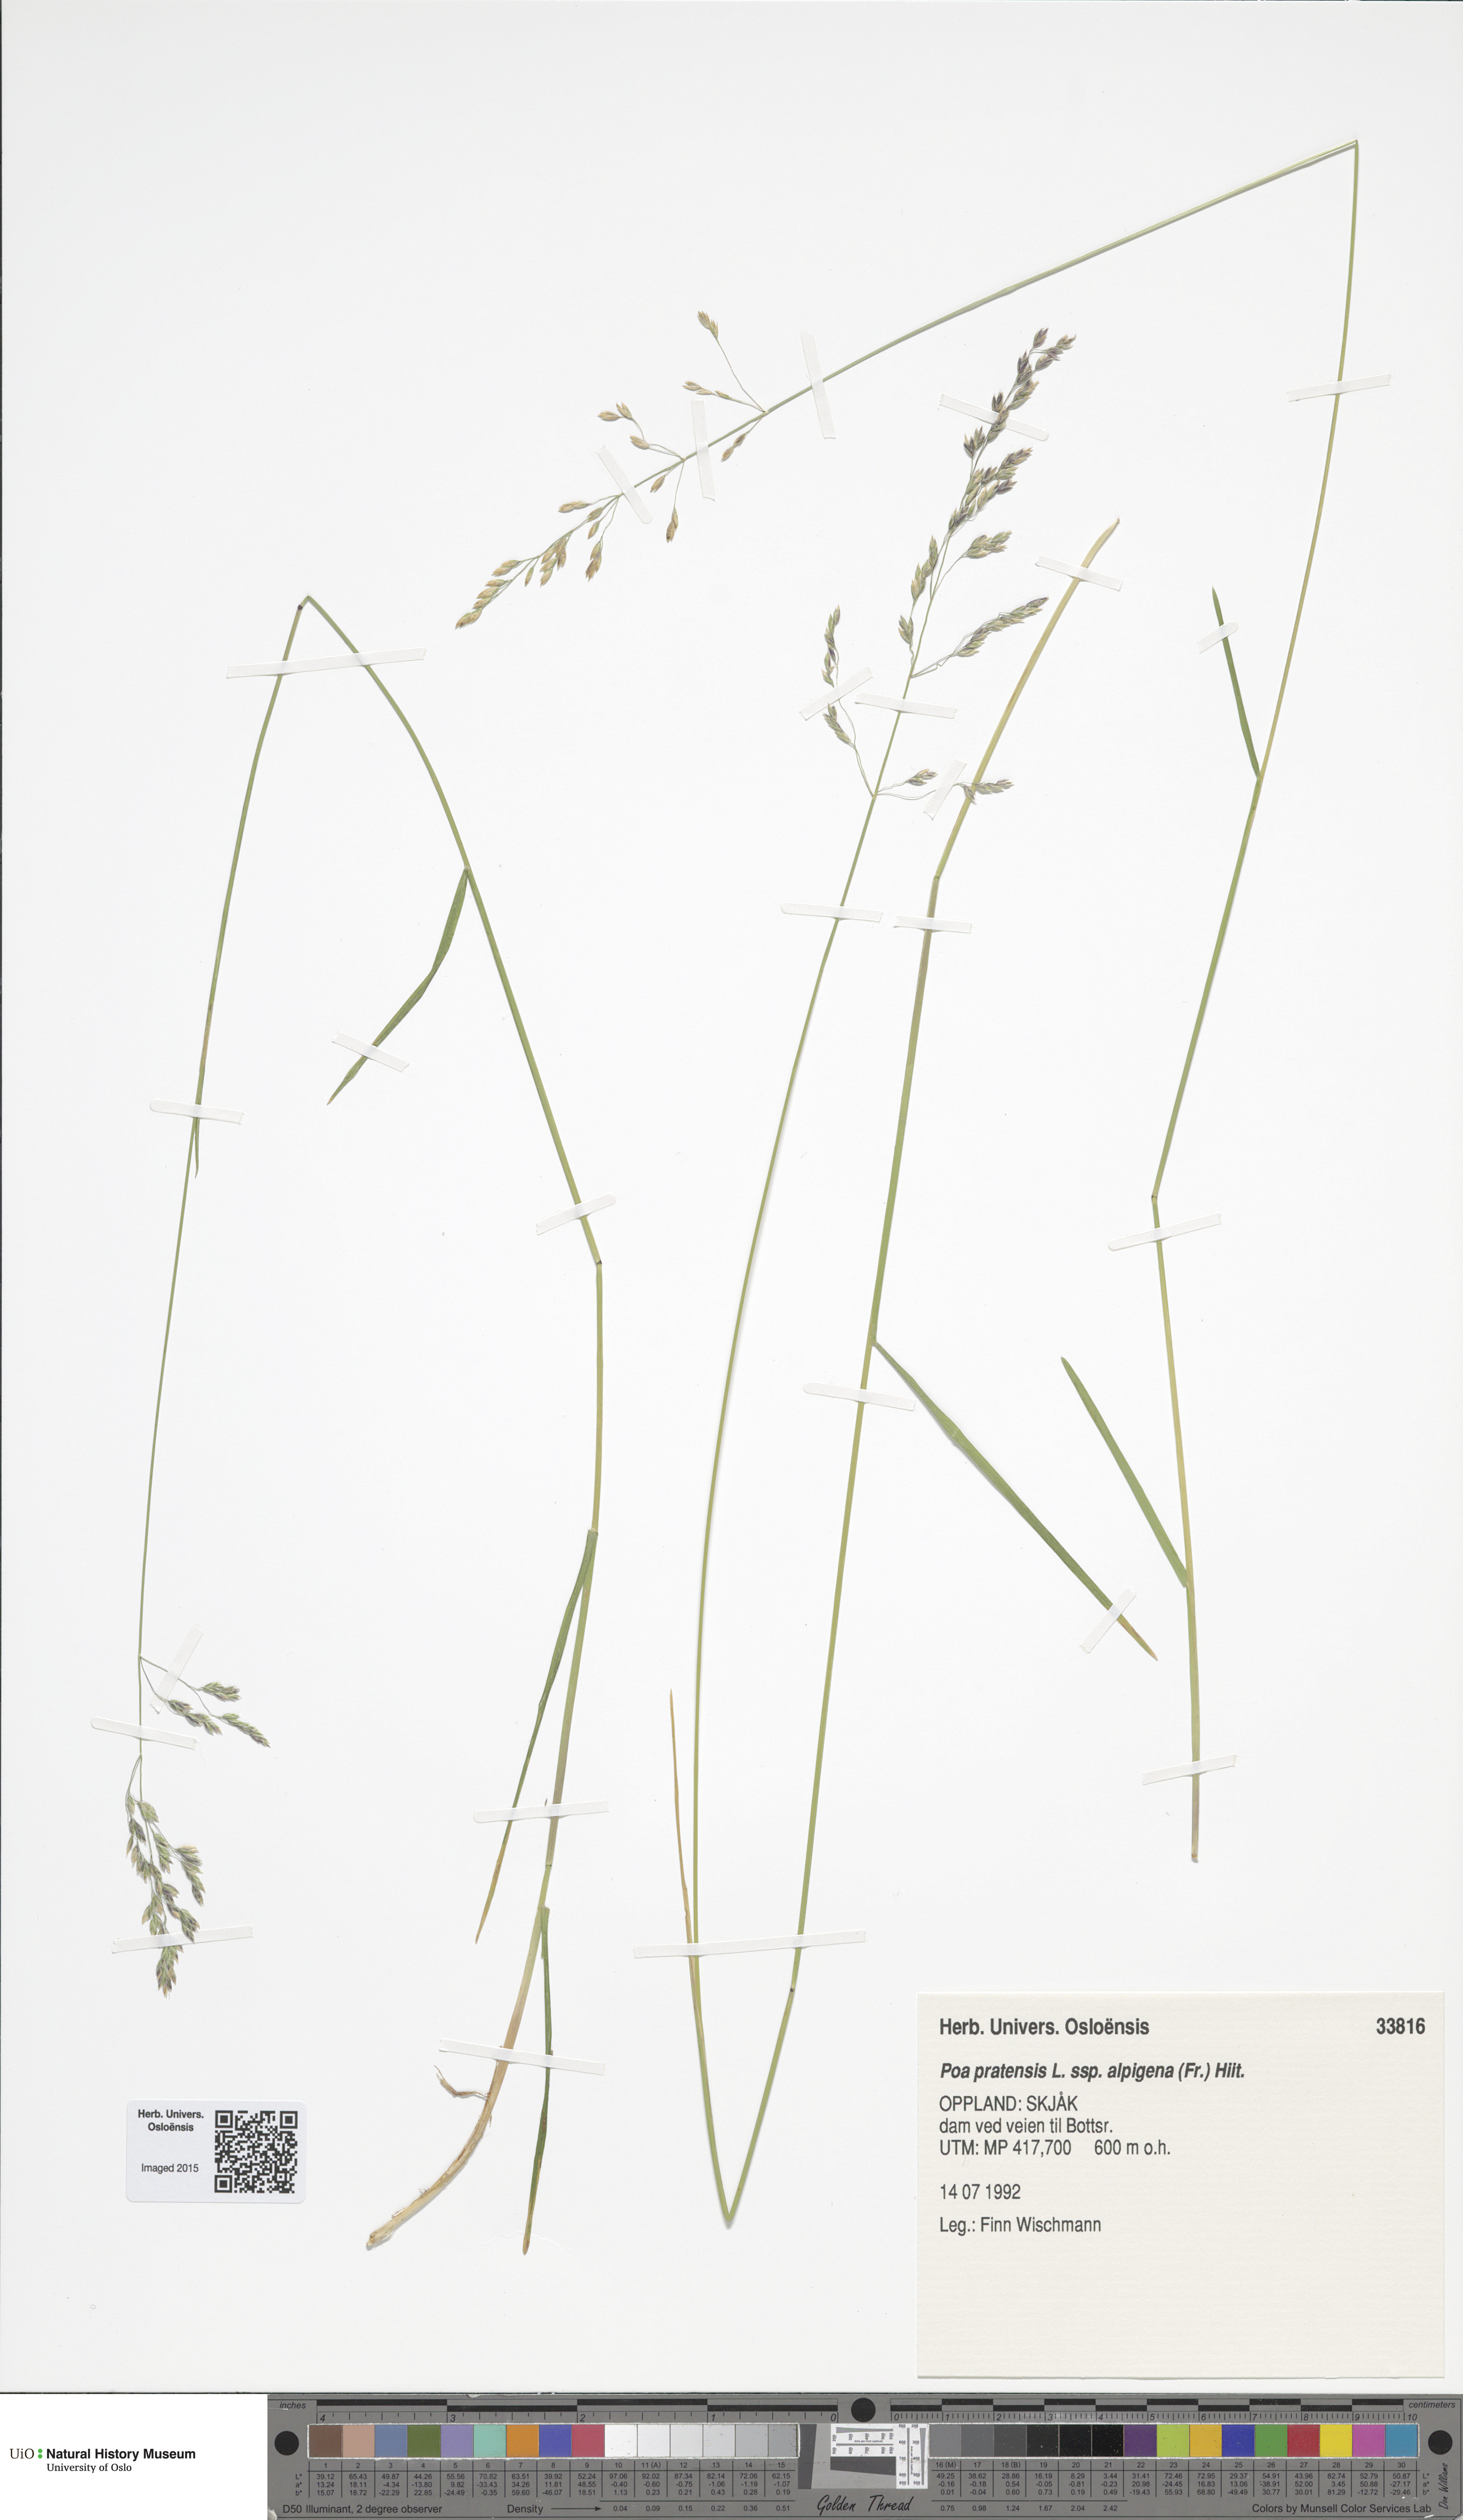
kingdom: Plantae
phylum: Tracheophyta
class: Liliopsida
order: Poales
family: Poaceae
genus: Poa
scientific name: Poa alpigena
